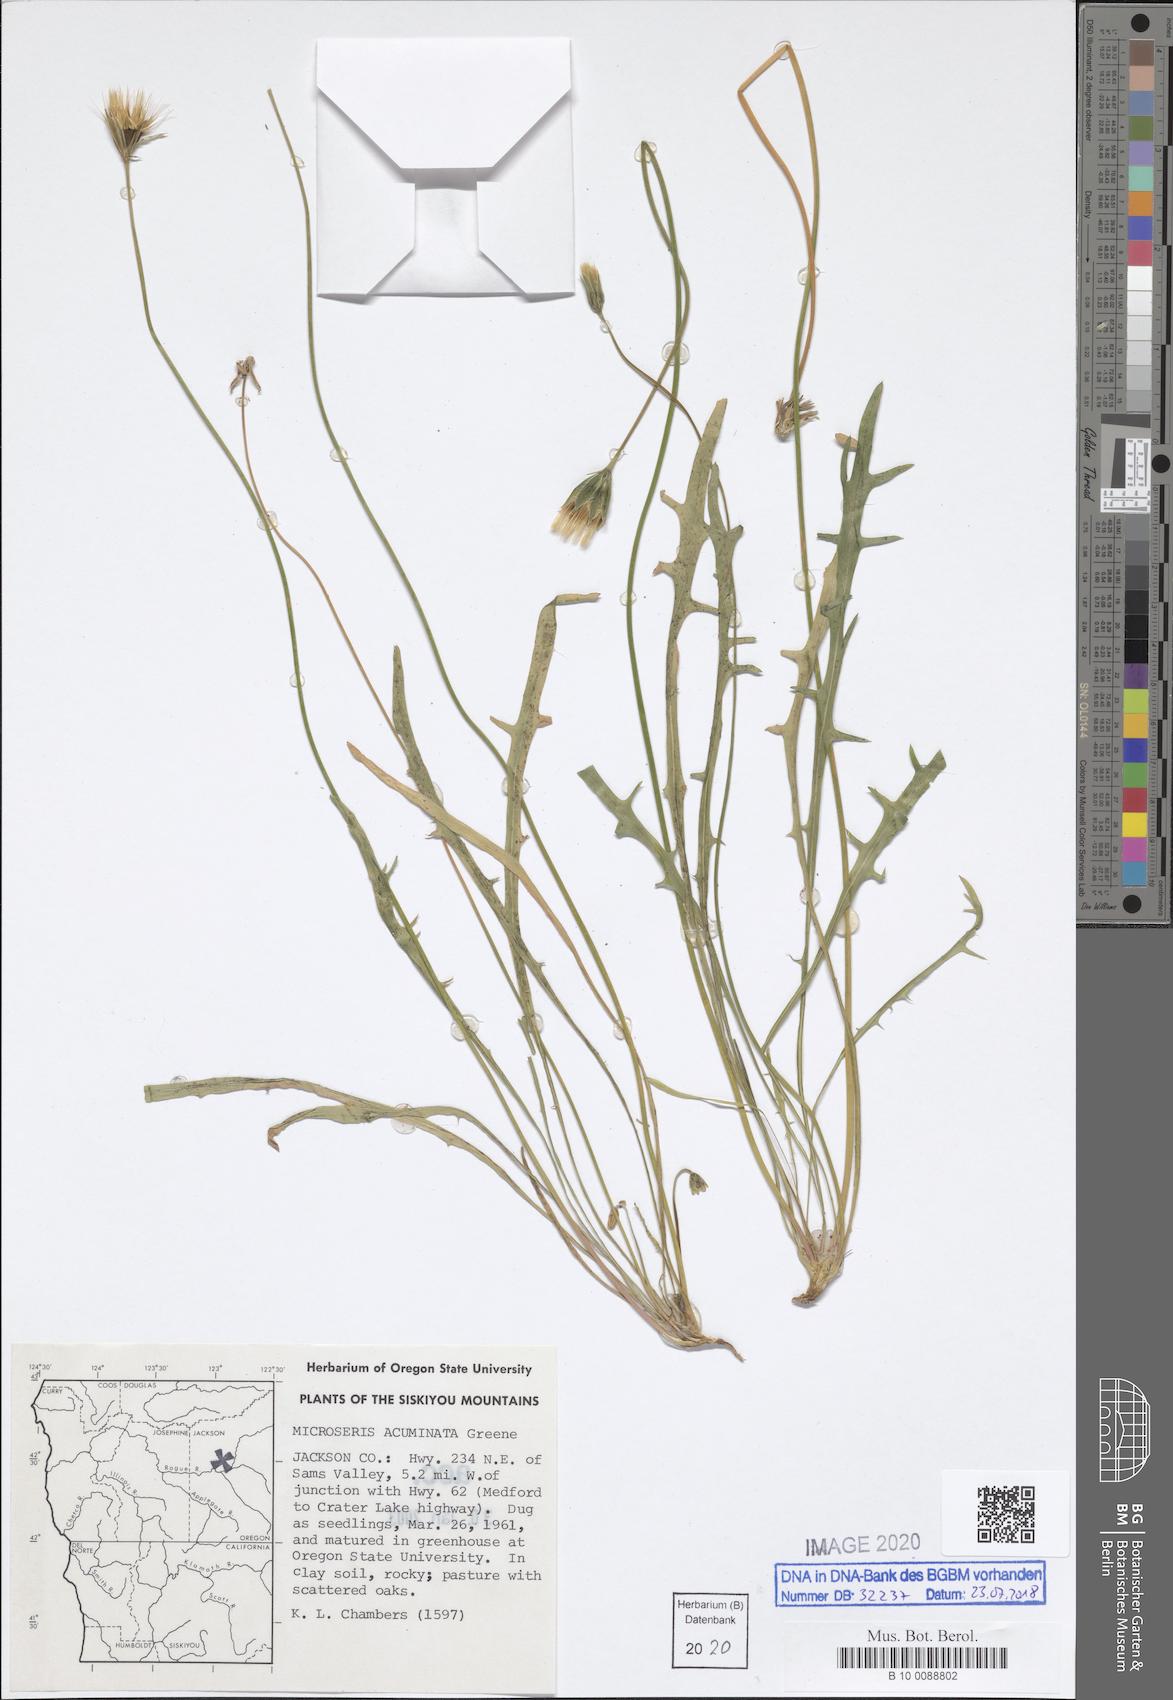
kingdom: Plantae
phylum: Tracheophyta
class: Magnoliopsida
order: Asterales
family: Asteraceae
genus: Microseris
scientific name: Microseris acuminata
